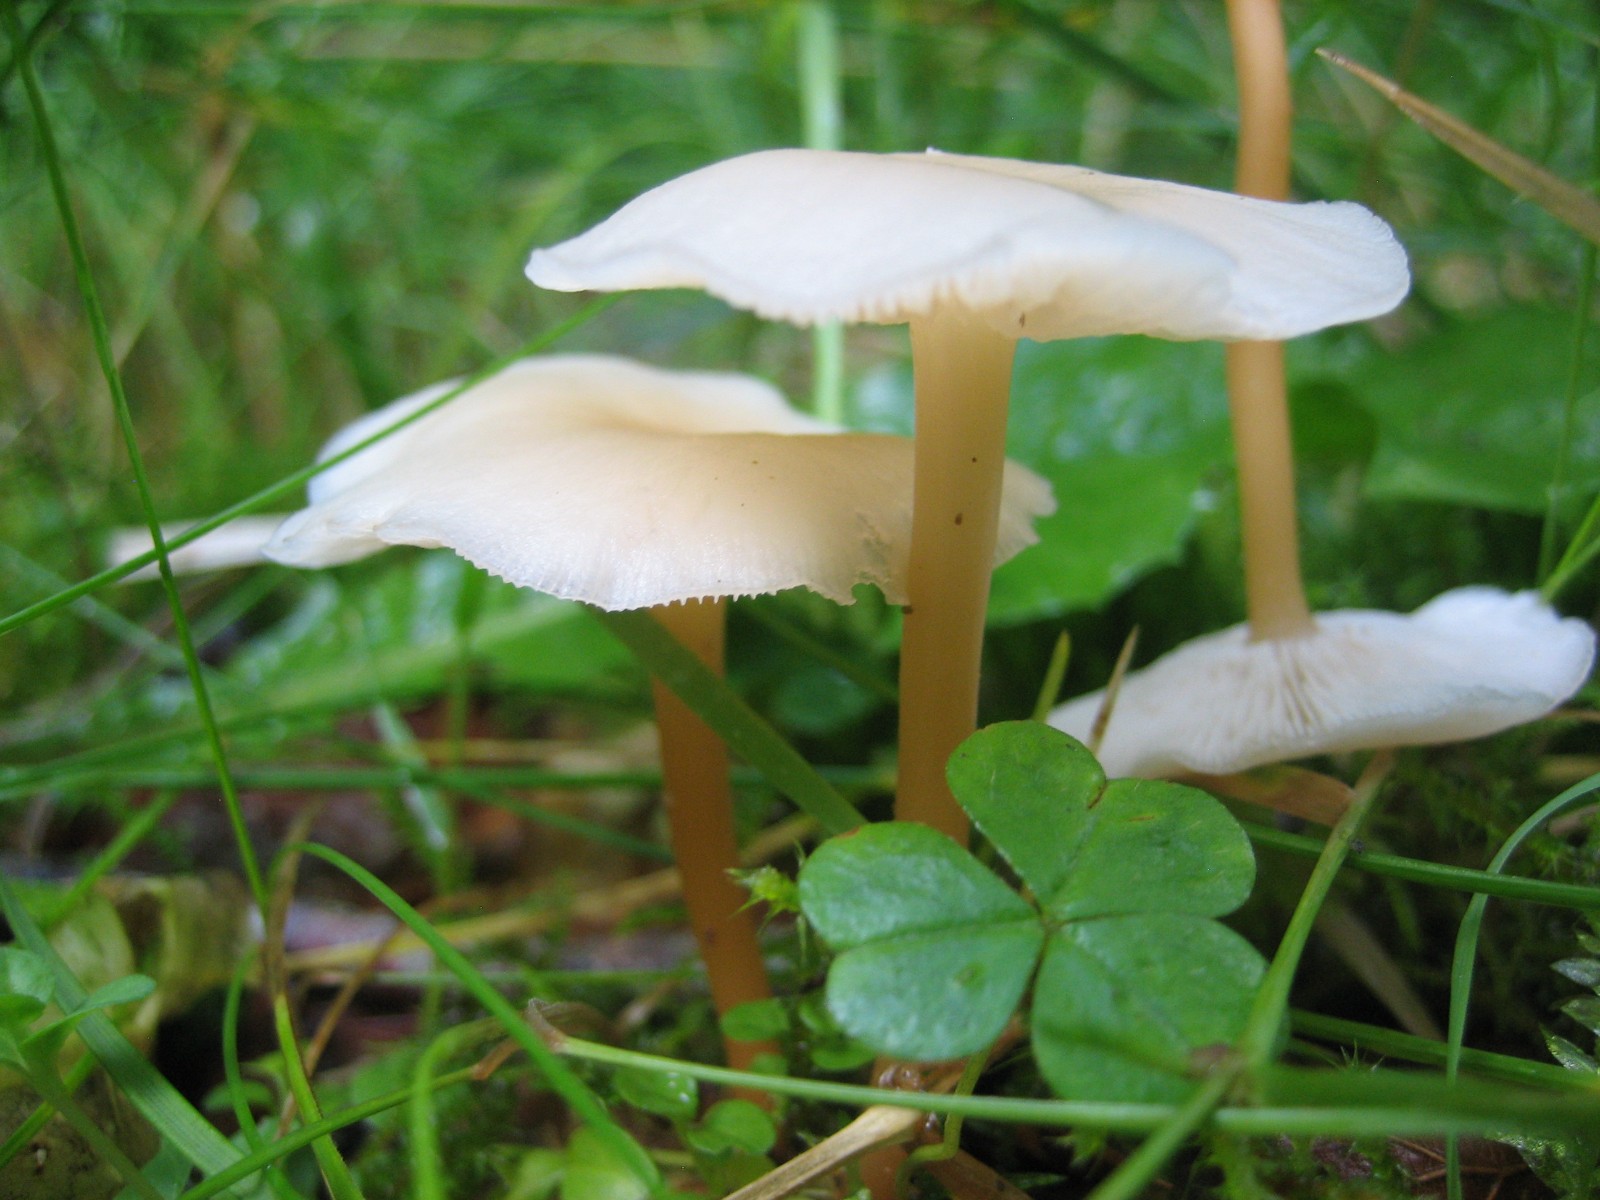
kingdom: Fungi
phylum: Basidiomycota
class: Agaricomycetes
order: Agaricales
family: Omphalotaceae
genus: Gymnopus
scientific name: Gymnopus
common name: fladhat
